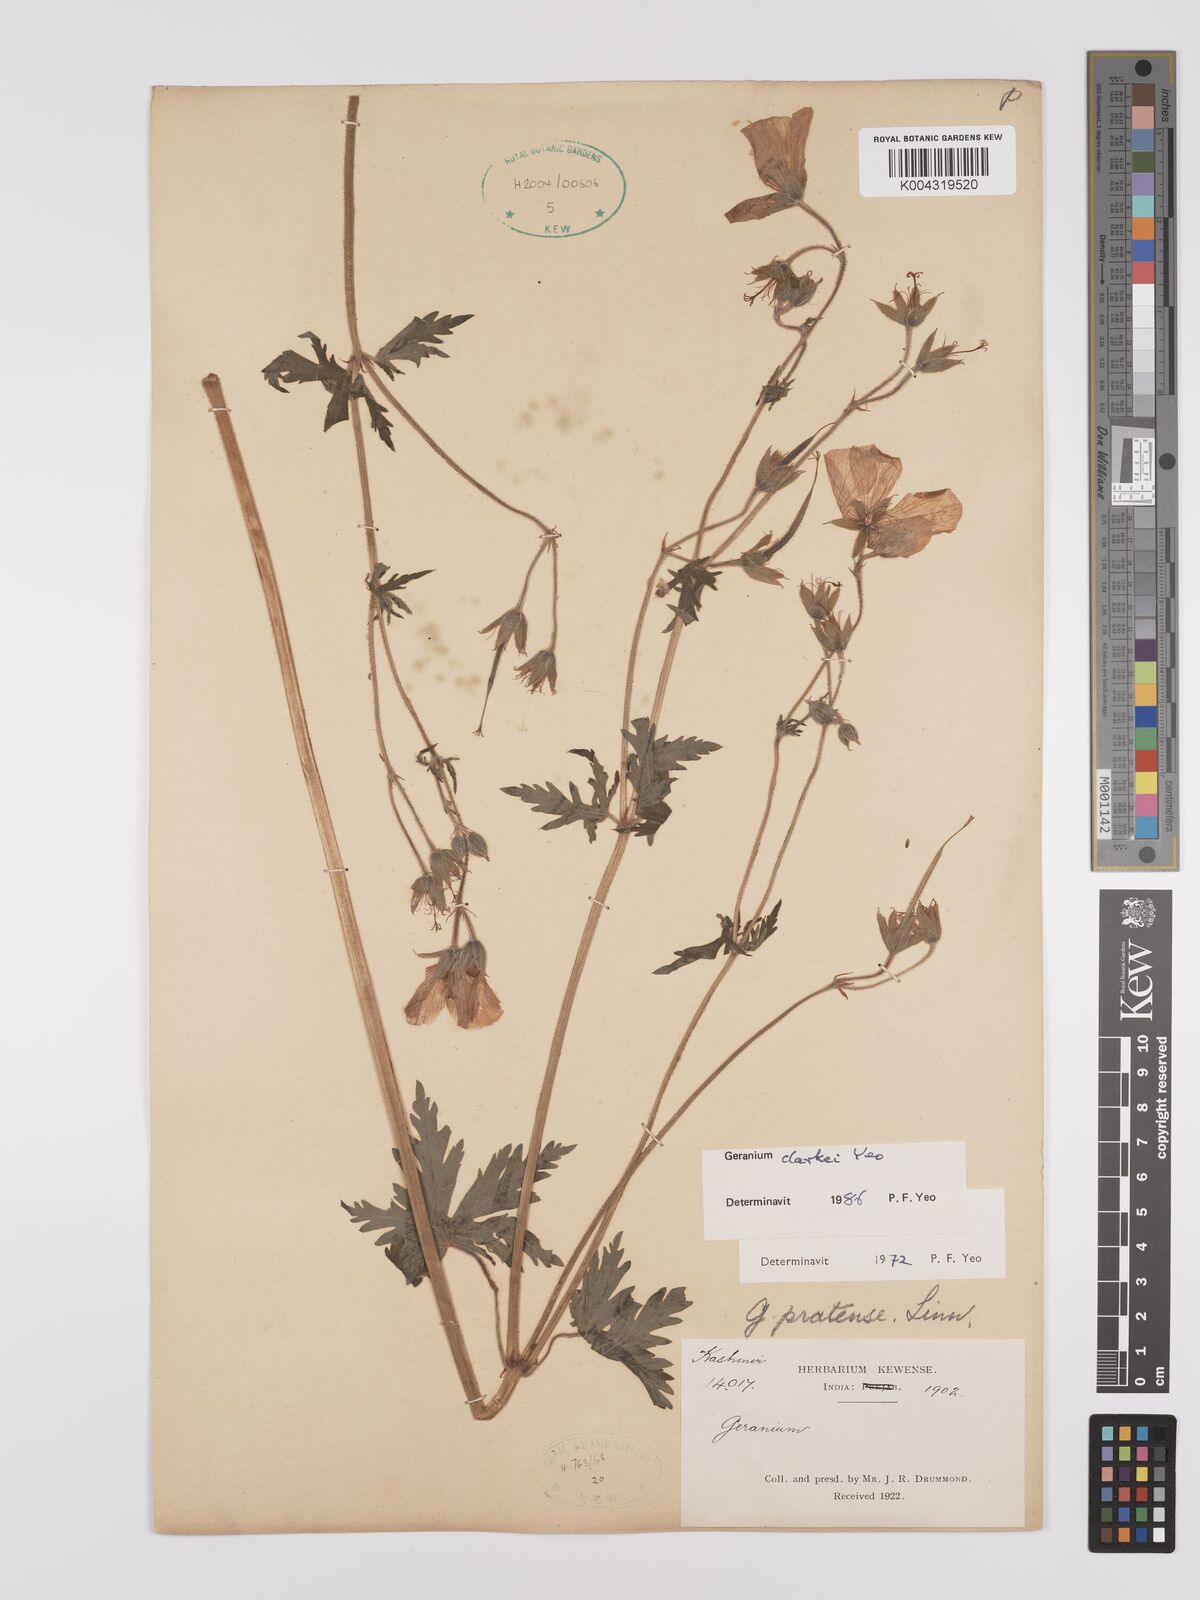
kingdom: Plantae
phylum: Tracheophyta
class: Magnoliopsida
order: Geraniales
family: Geraniaceae
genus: Geranium
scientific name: Geranium clarkei
